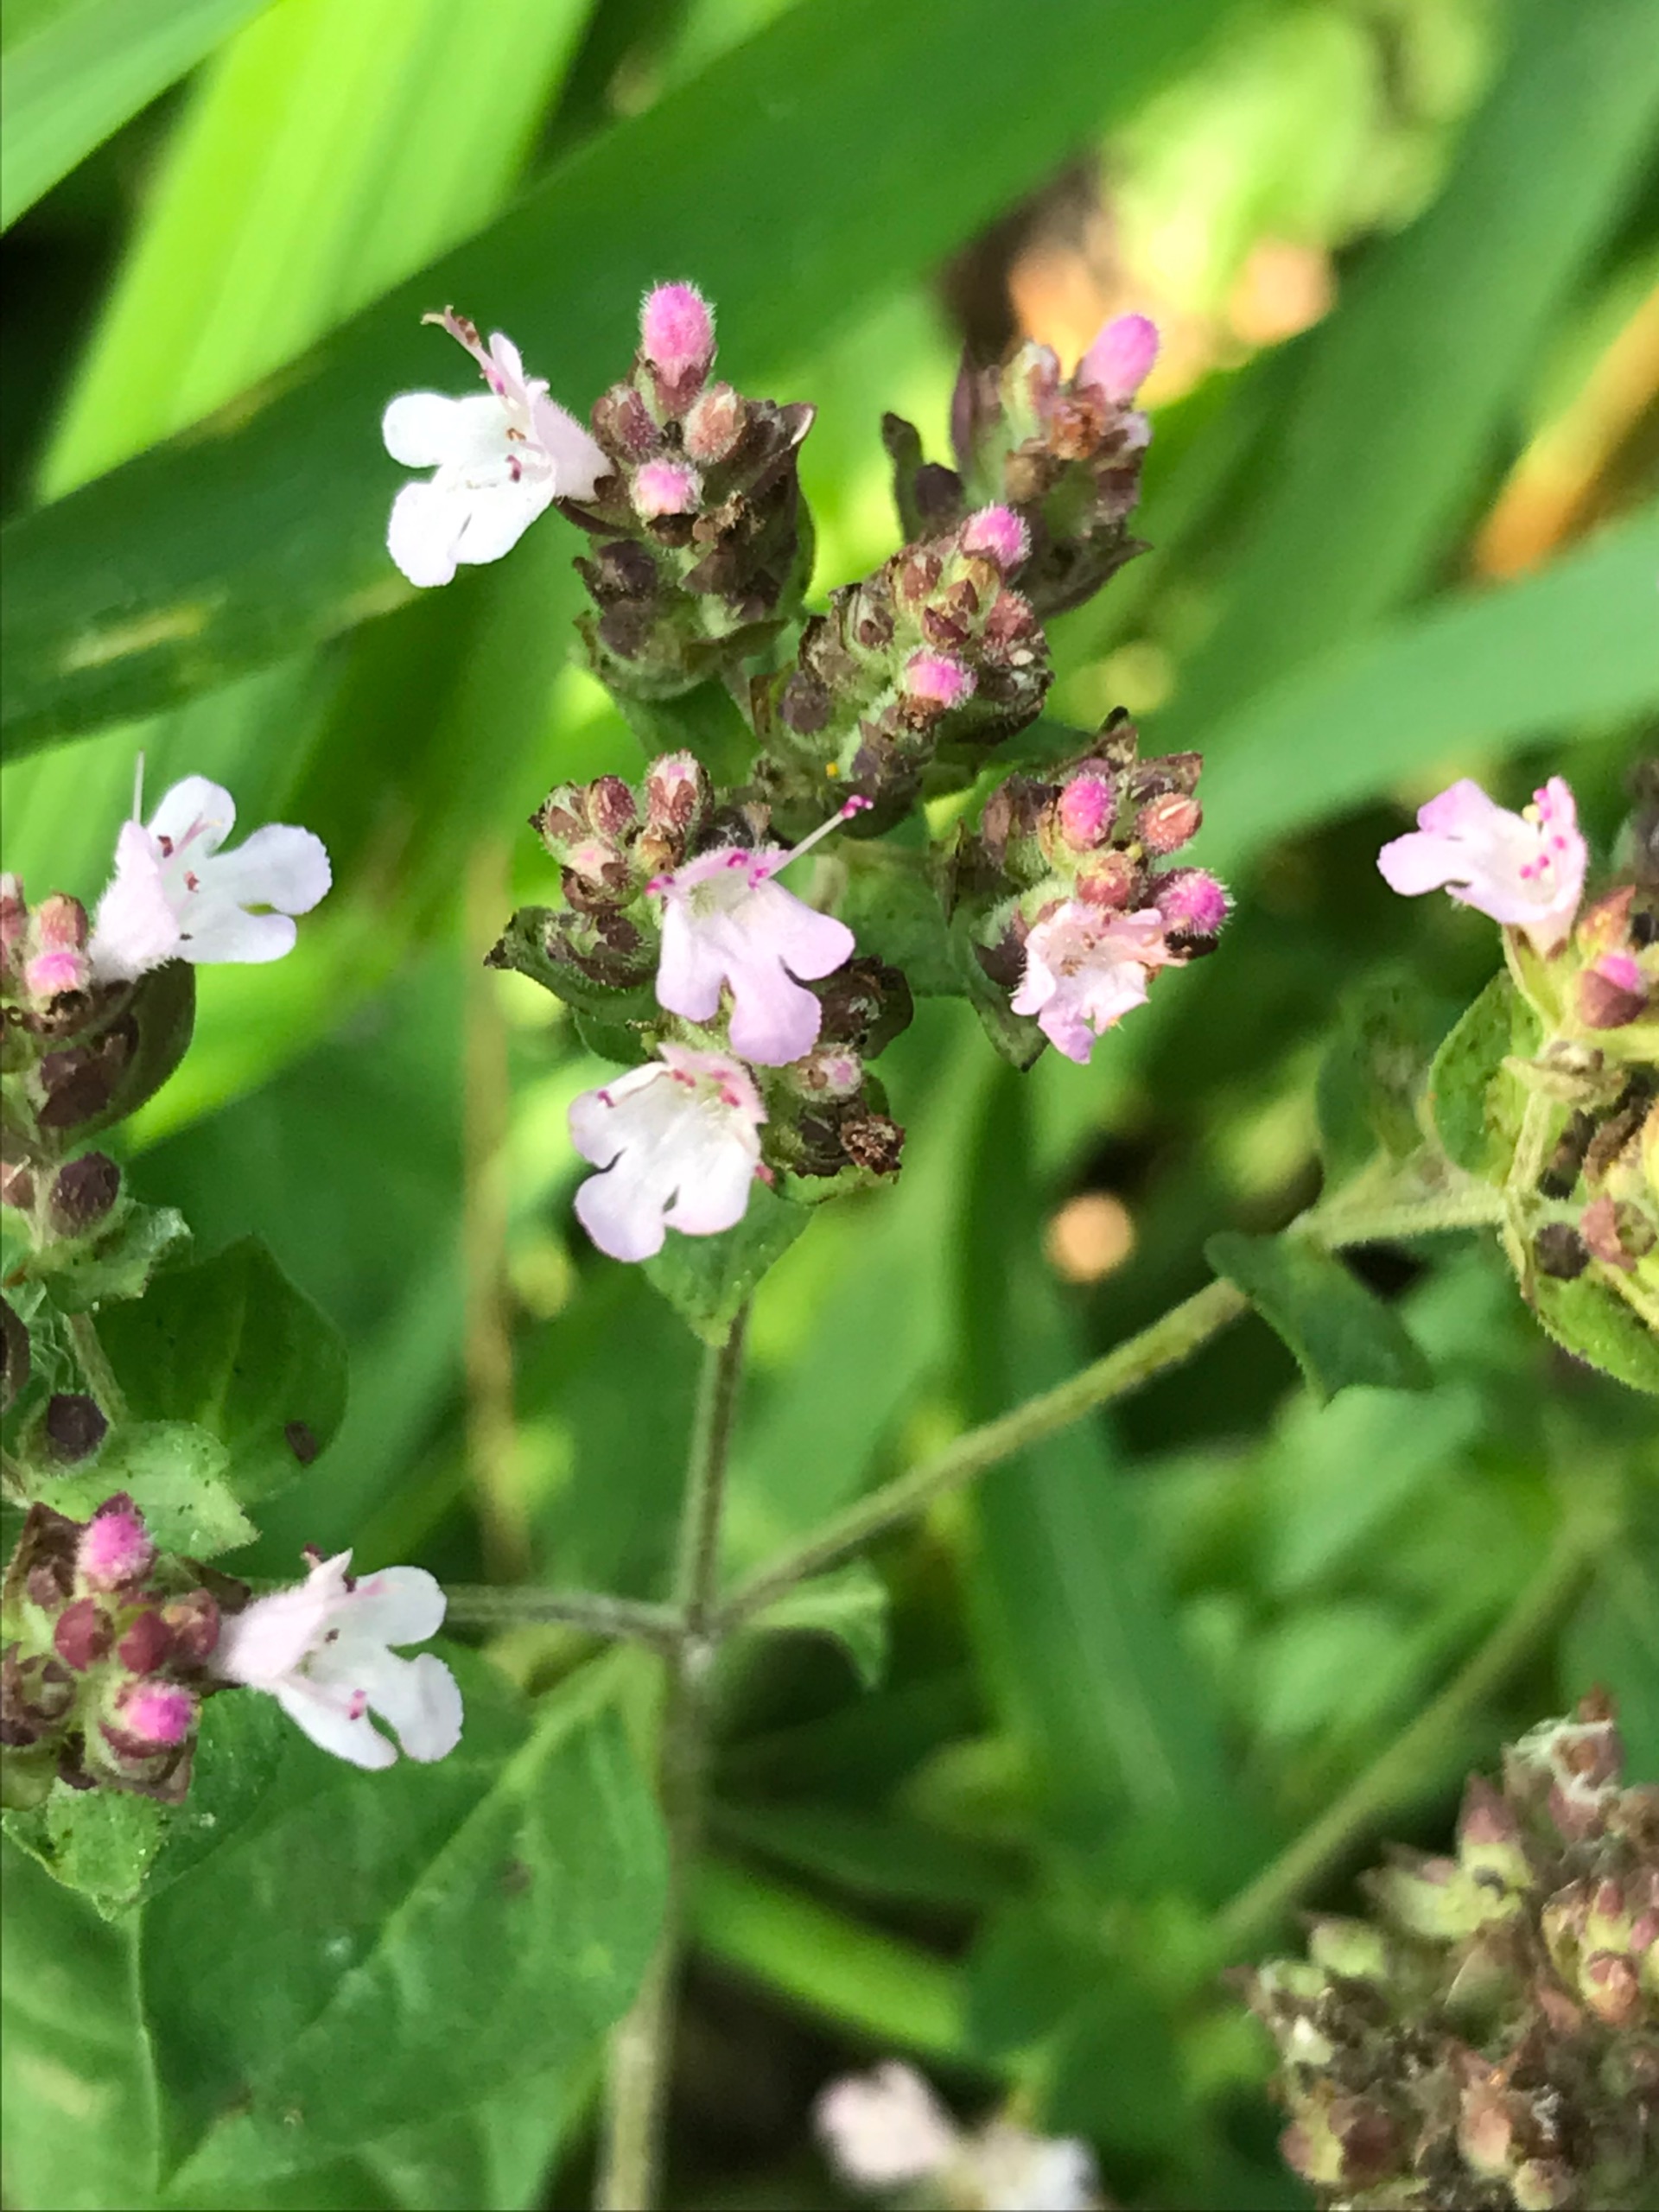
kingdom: Plantae
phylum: Tracheophyta
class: Magnoliopsida
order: Lamiales
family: Lamiaceae
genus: Origanum
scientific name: Origanum vulgare
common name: Merian
